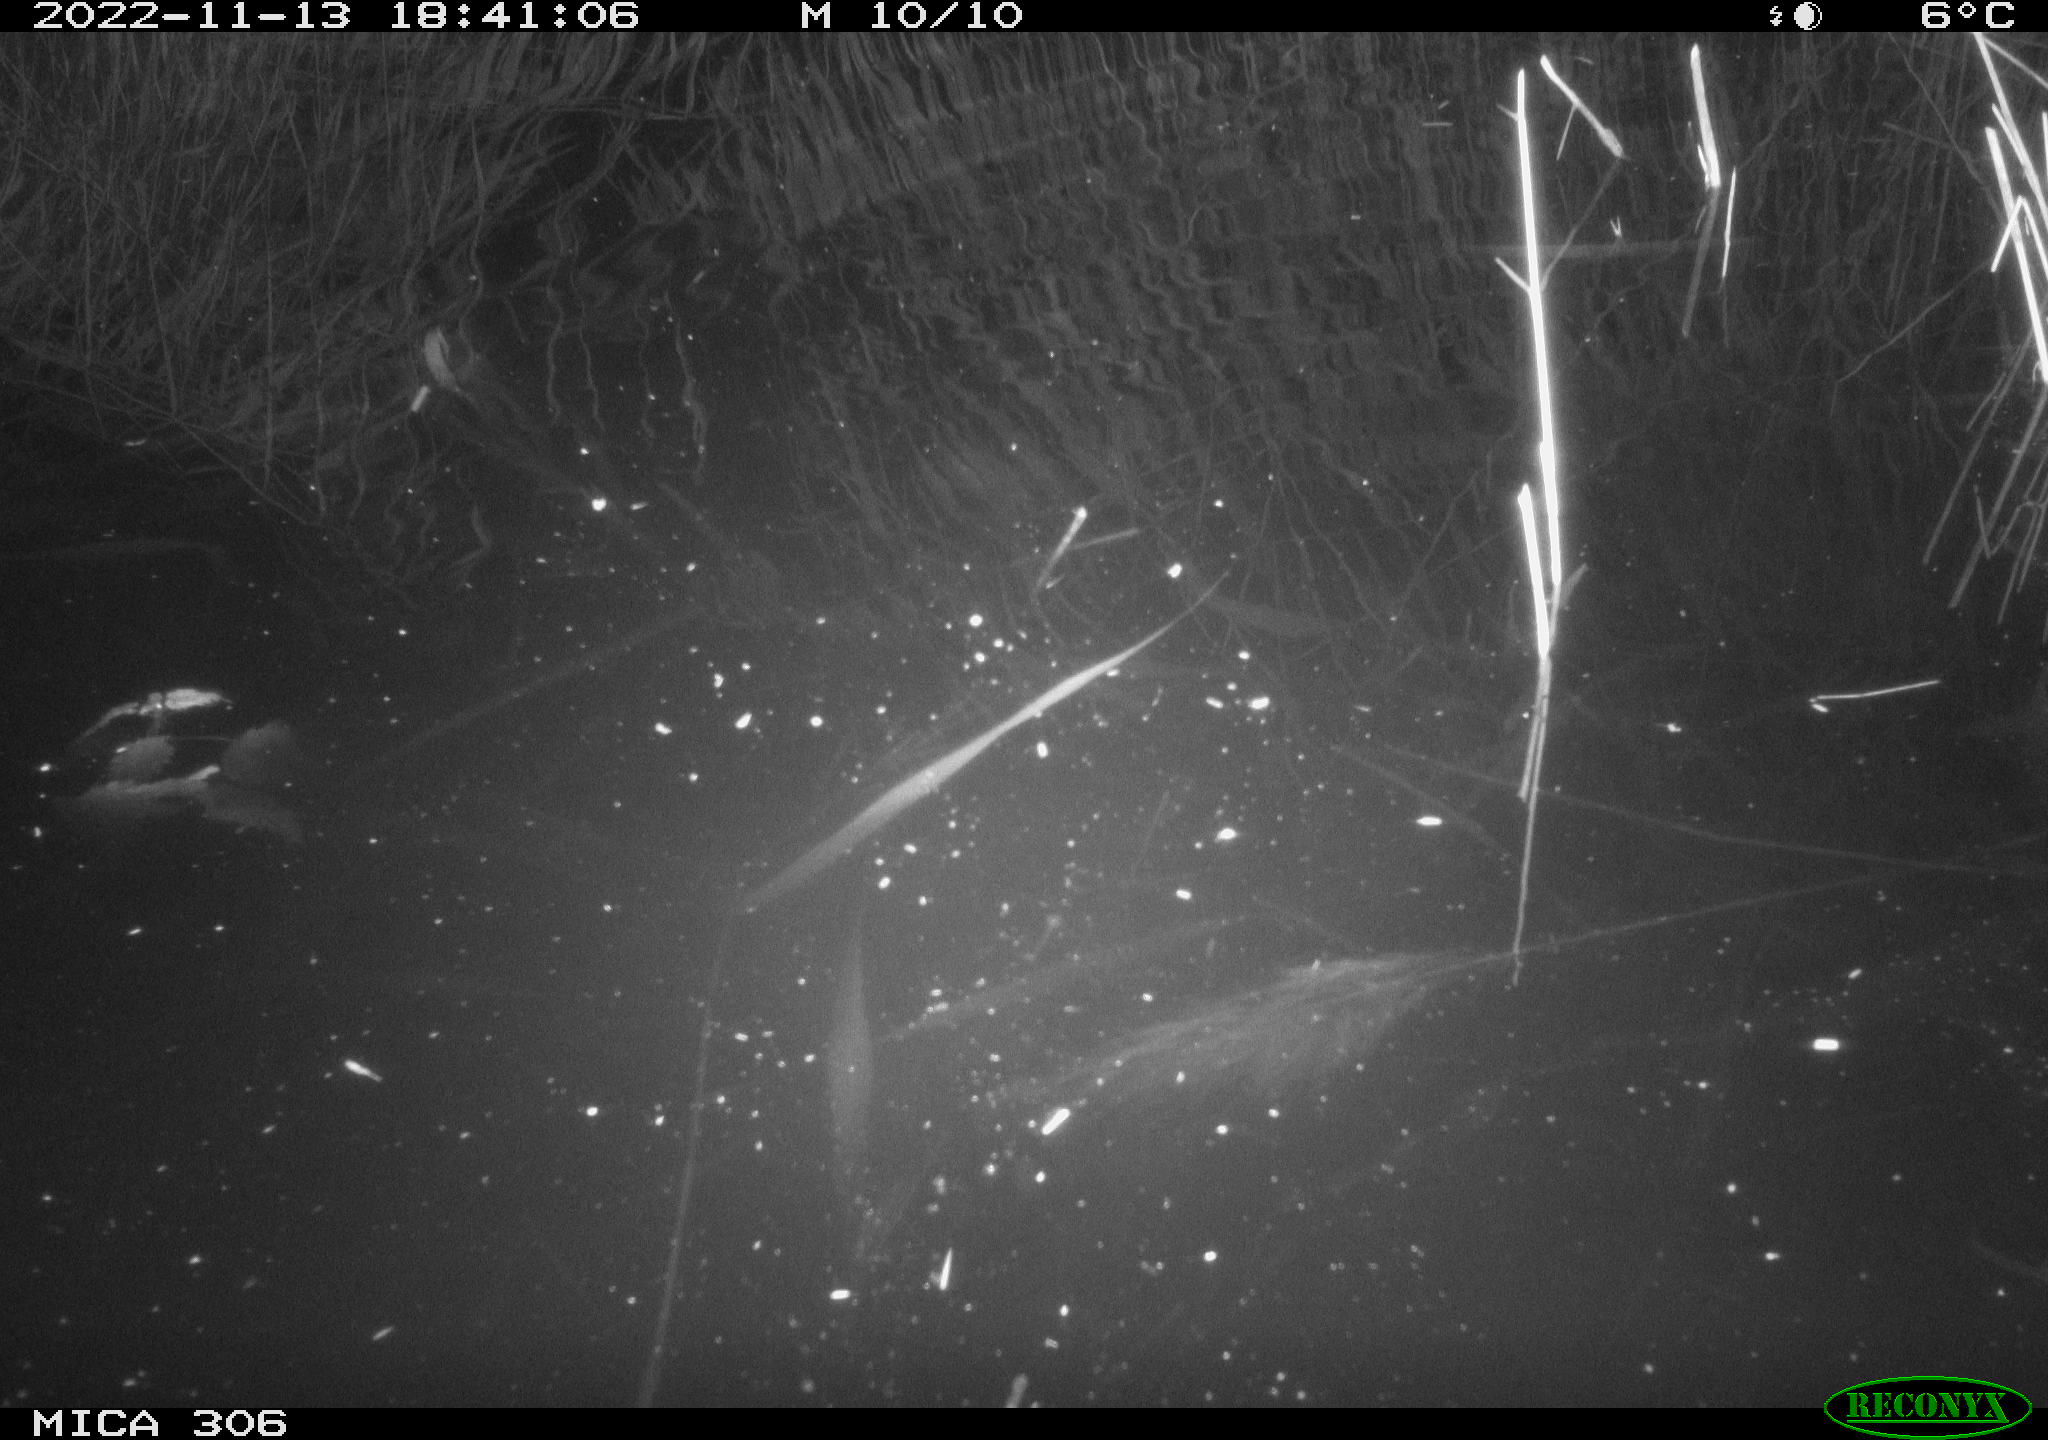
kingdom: Animalia
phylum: Chordata
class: Mammalia
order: Rodentia
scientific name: Rodentia
